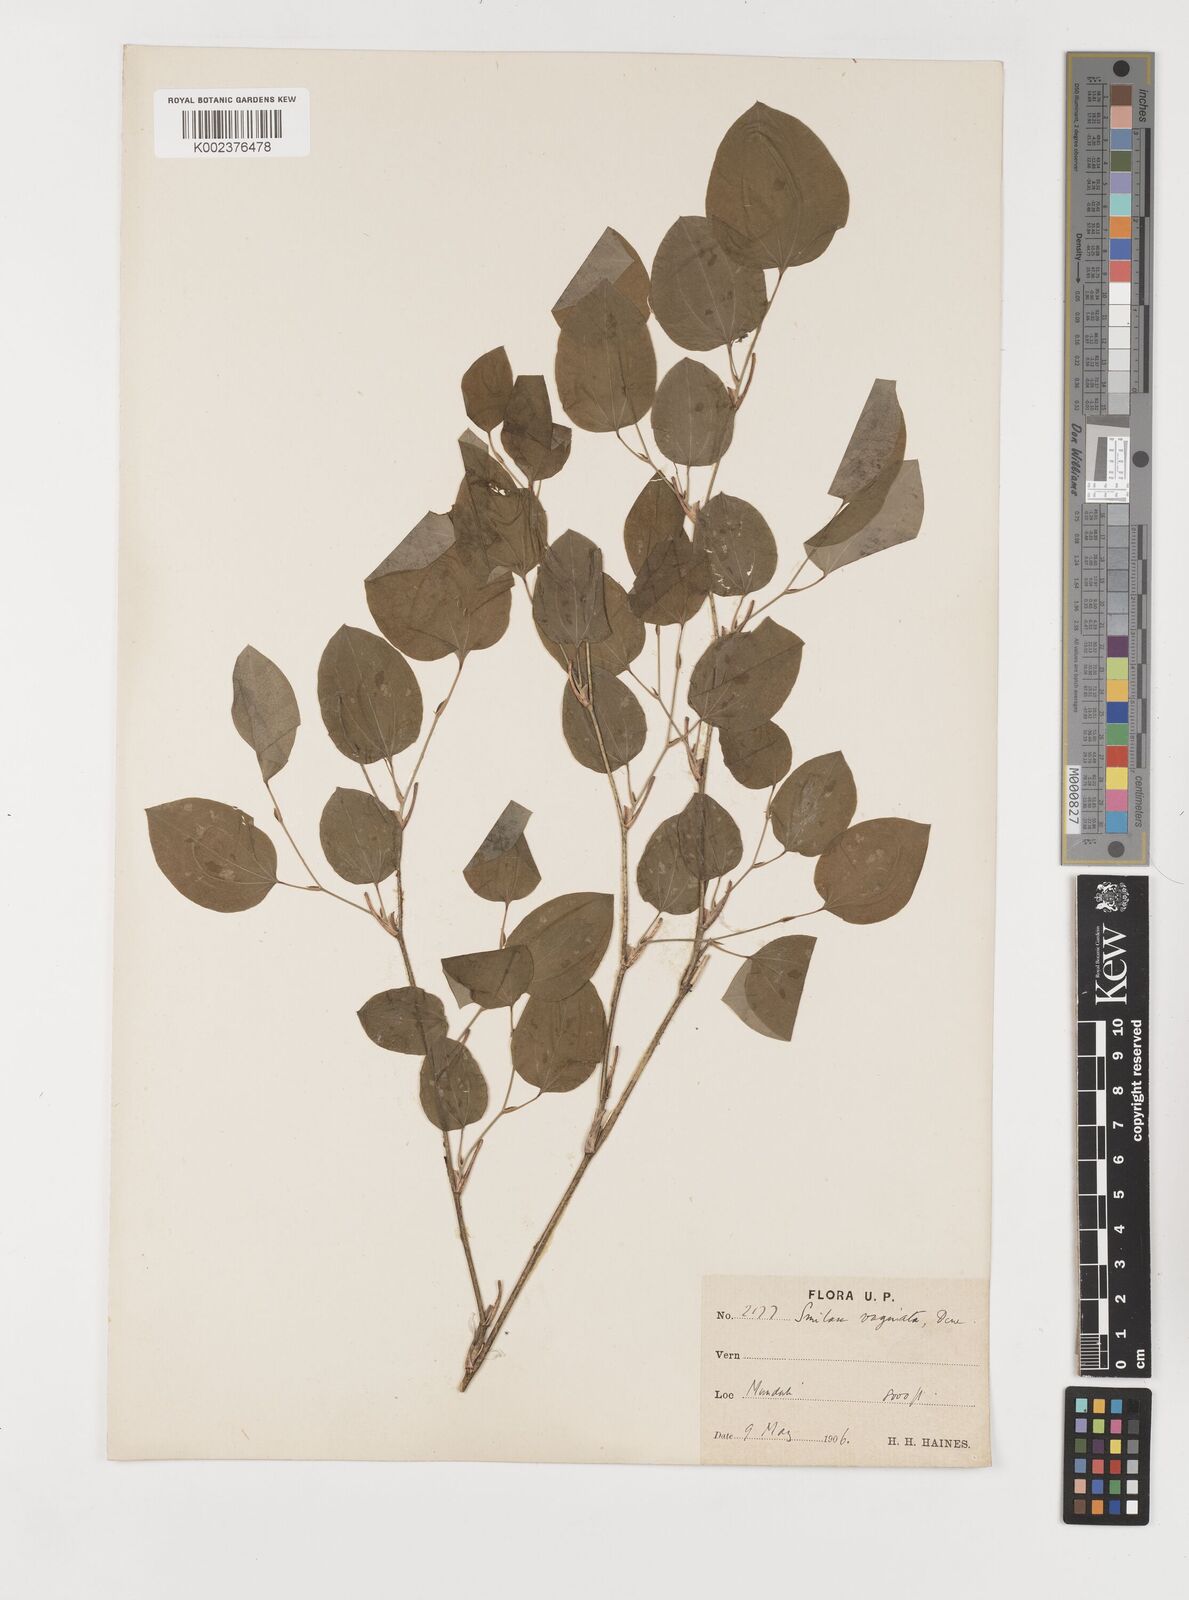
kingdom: Plantae
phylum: Tracheophyta
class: Liliopsida
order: Liliales
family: Smilacaceae
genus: Smilax
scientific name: Smilax vaginata
